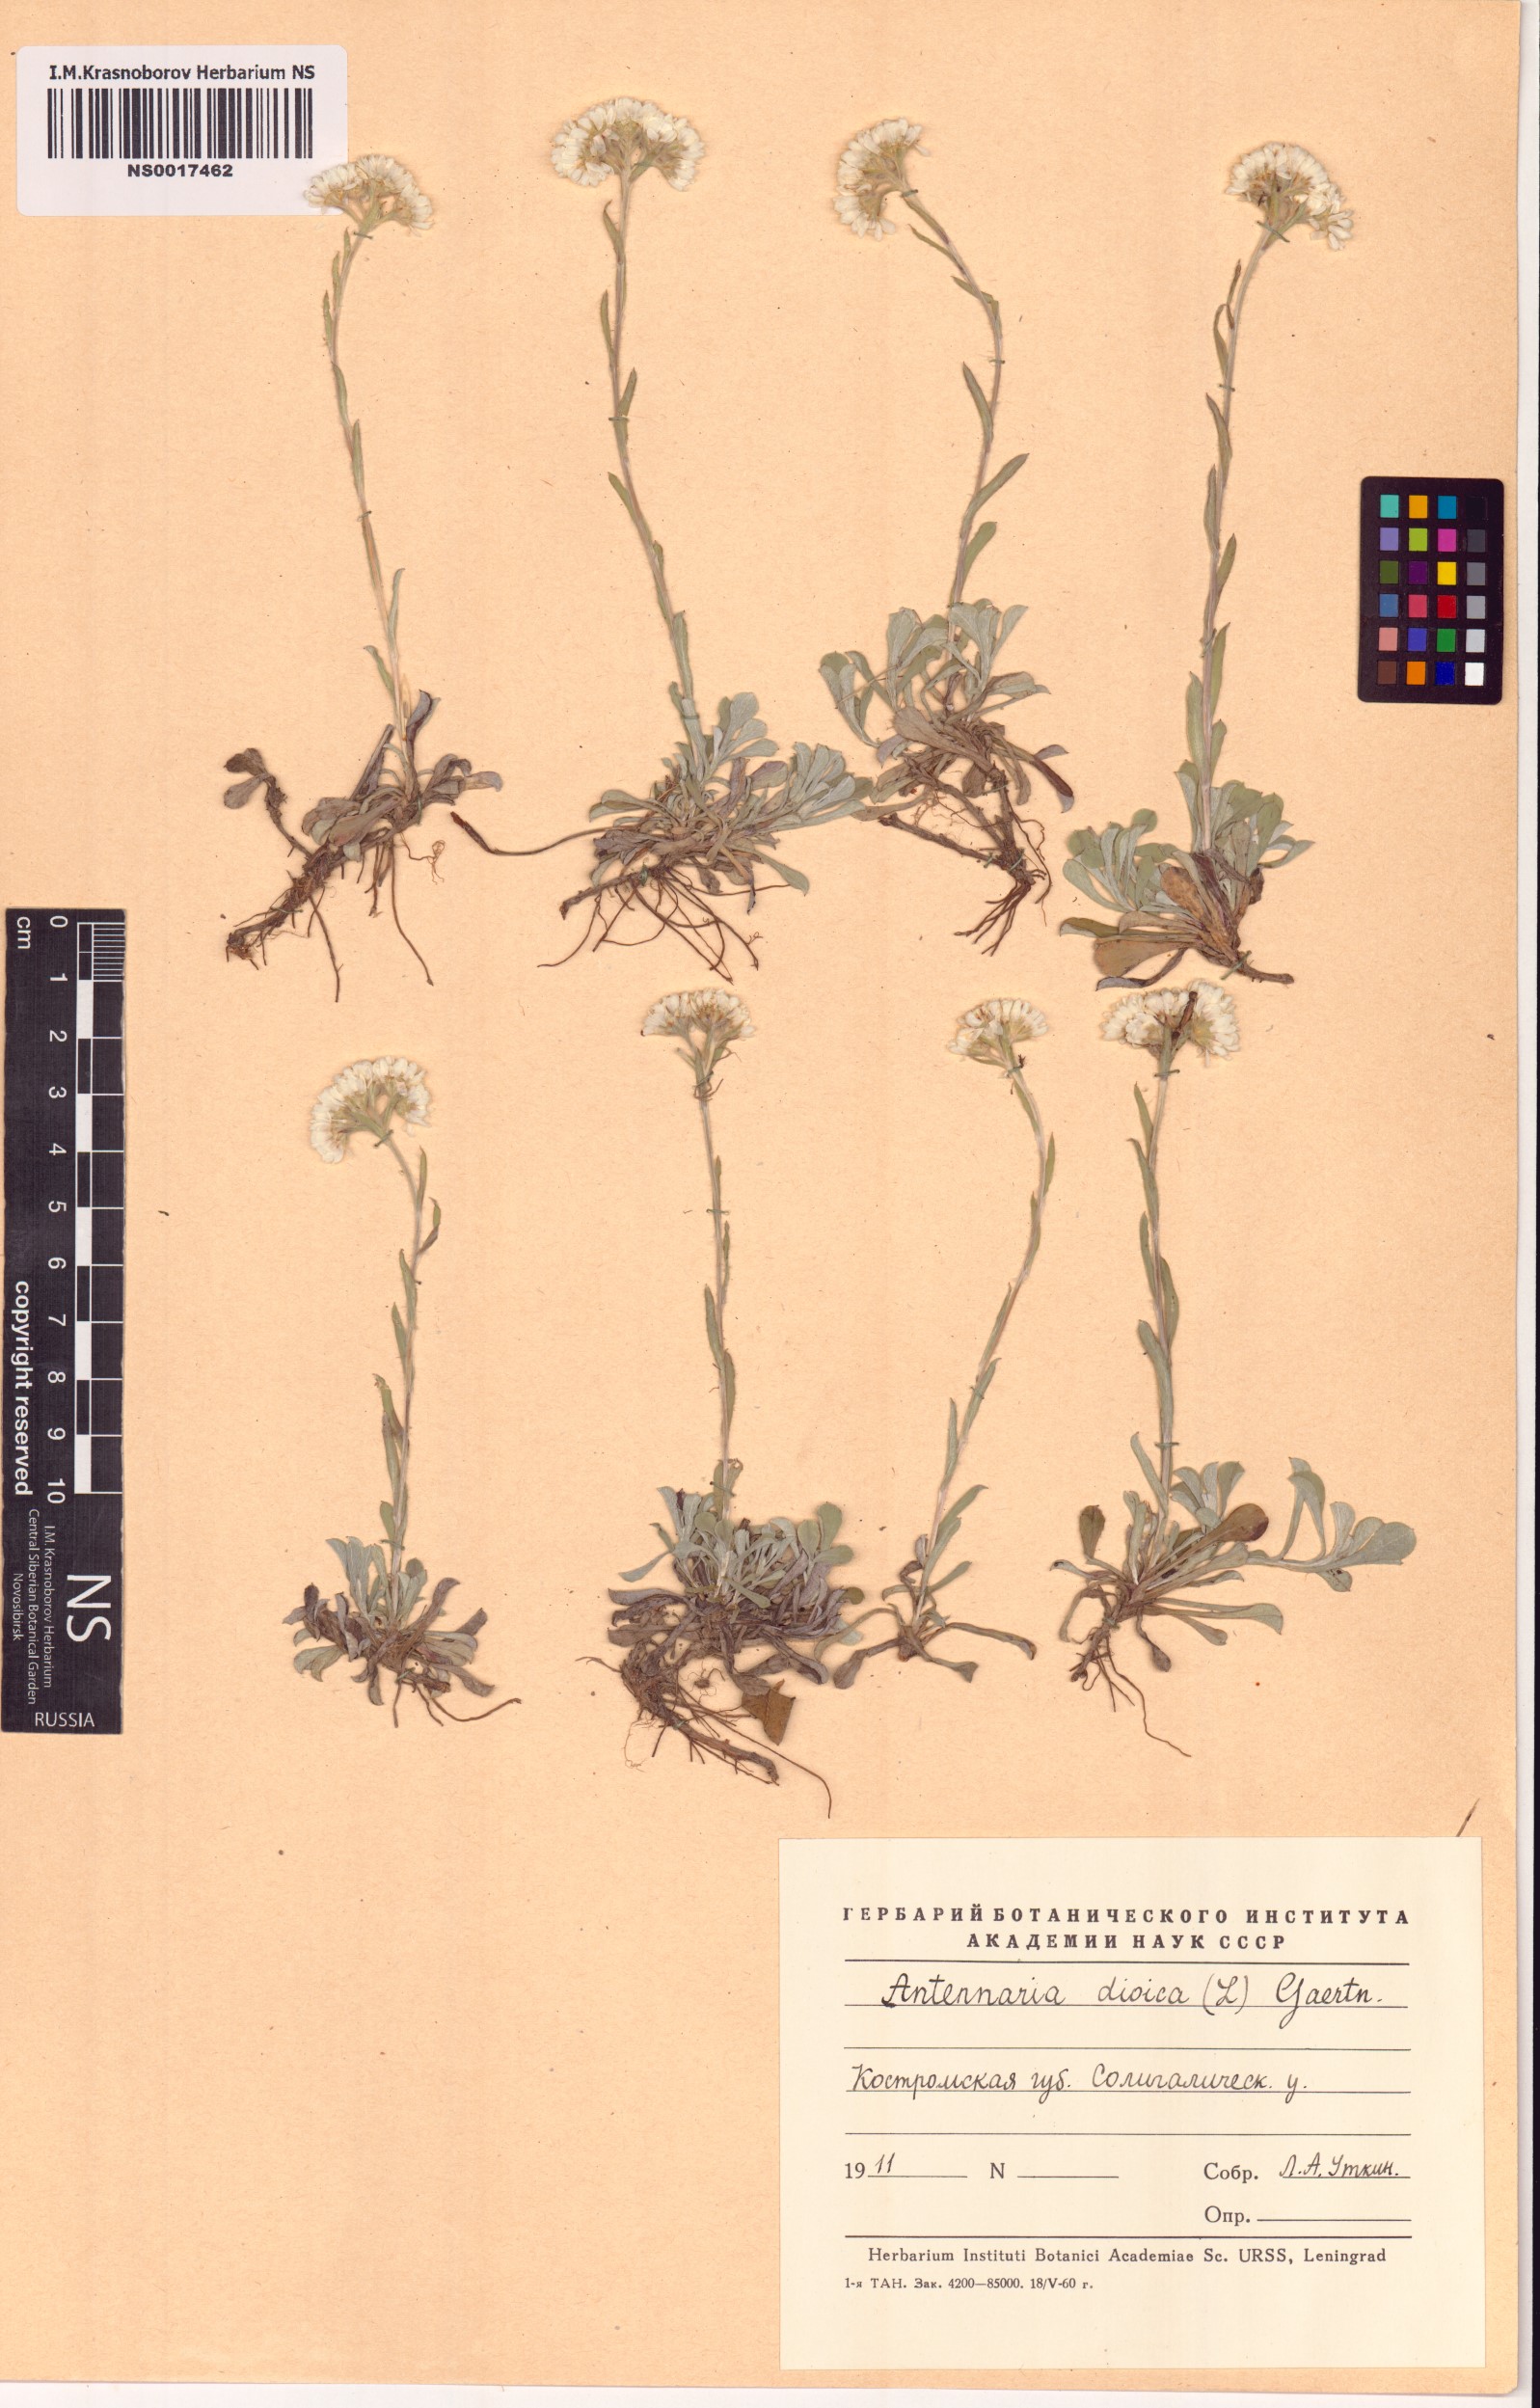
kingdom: Plantae
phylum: Tracheophyta
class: Magnoliopsida
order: Asterales
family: Asteraceae
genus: Antennaria
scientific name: Antennaria dioica
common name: Mountain everlasting
